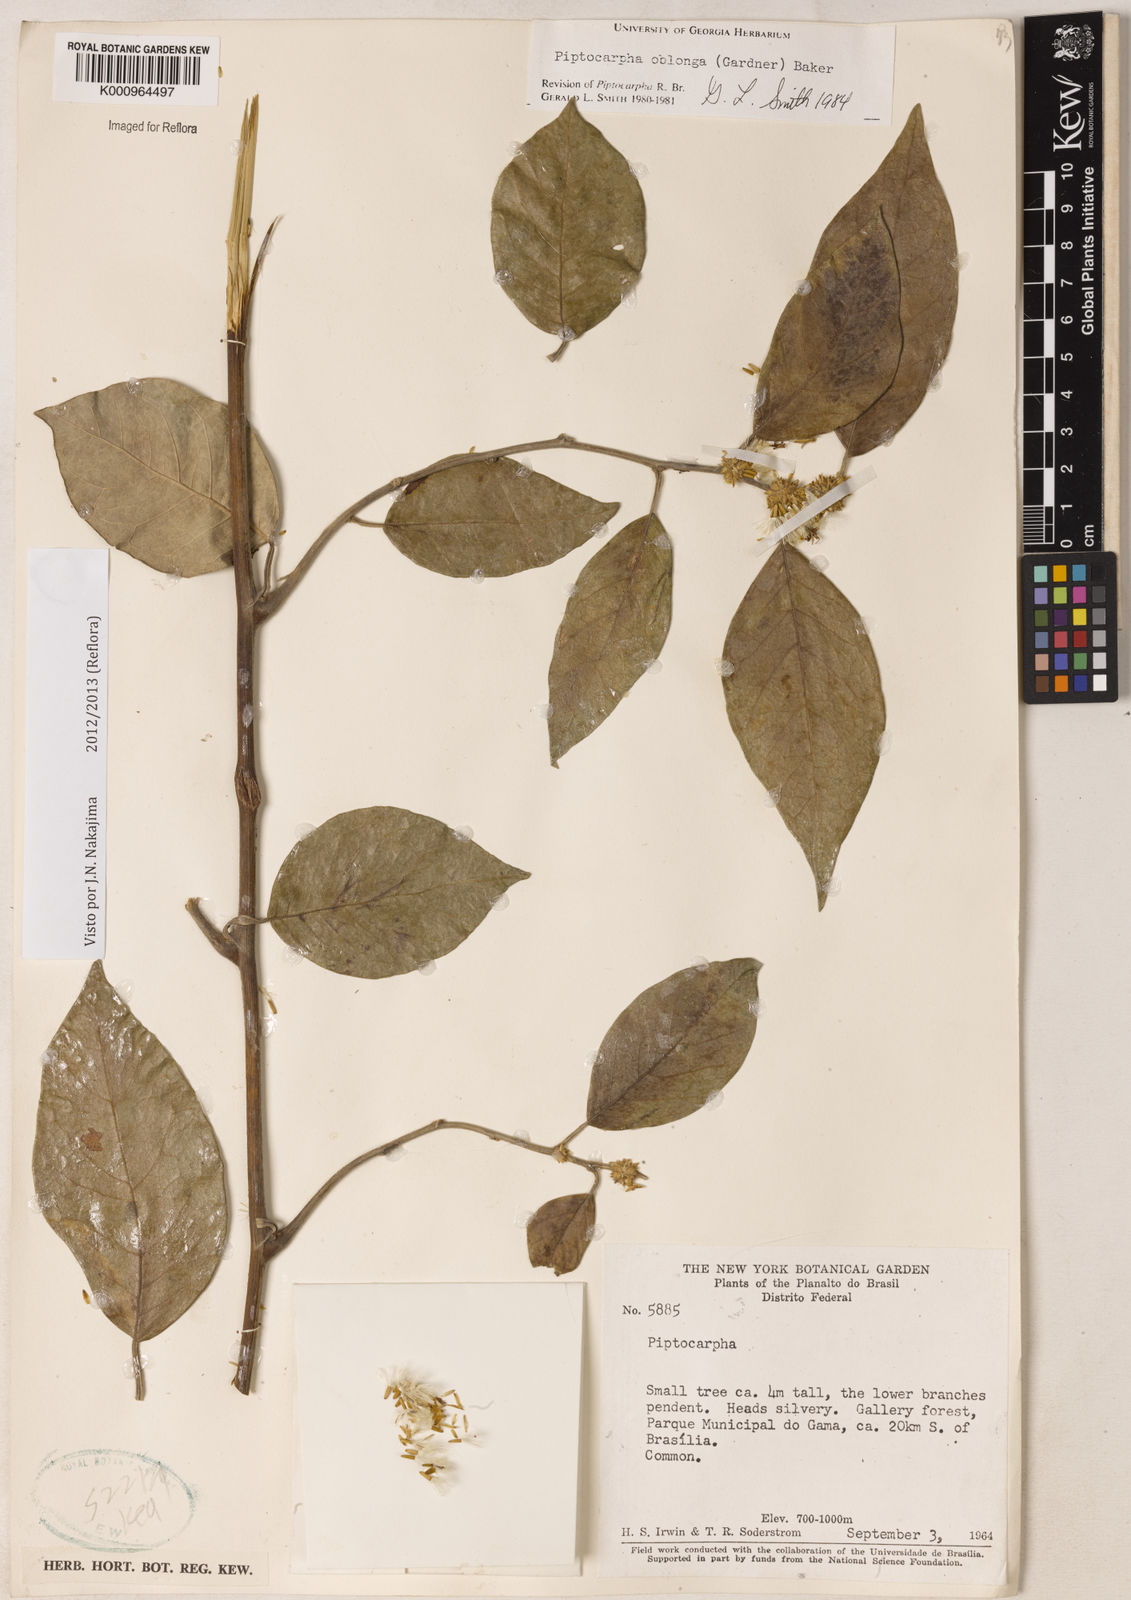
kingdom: Plantae
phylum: Tracheophyta
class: Magnoliopsida
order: Asterales
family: Asteraceae
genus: Piptocarpha
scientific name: Piptocarpha oblonga
